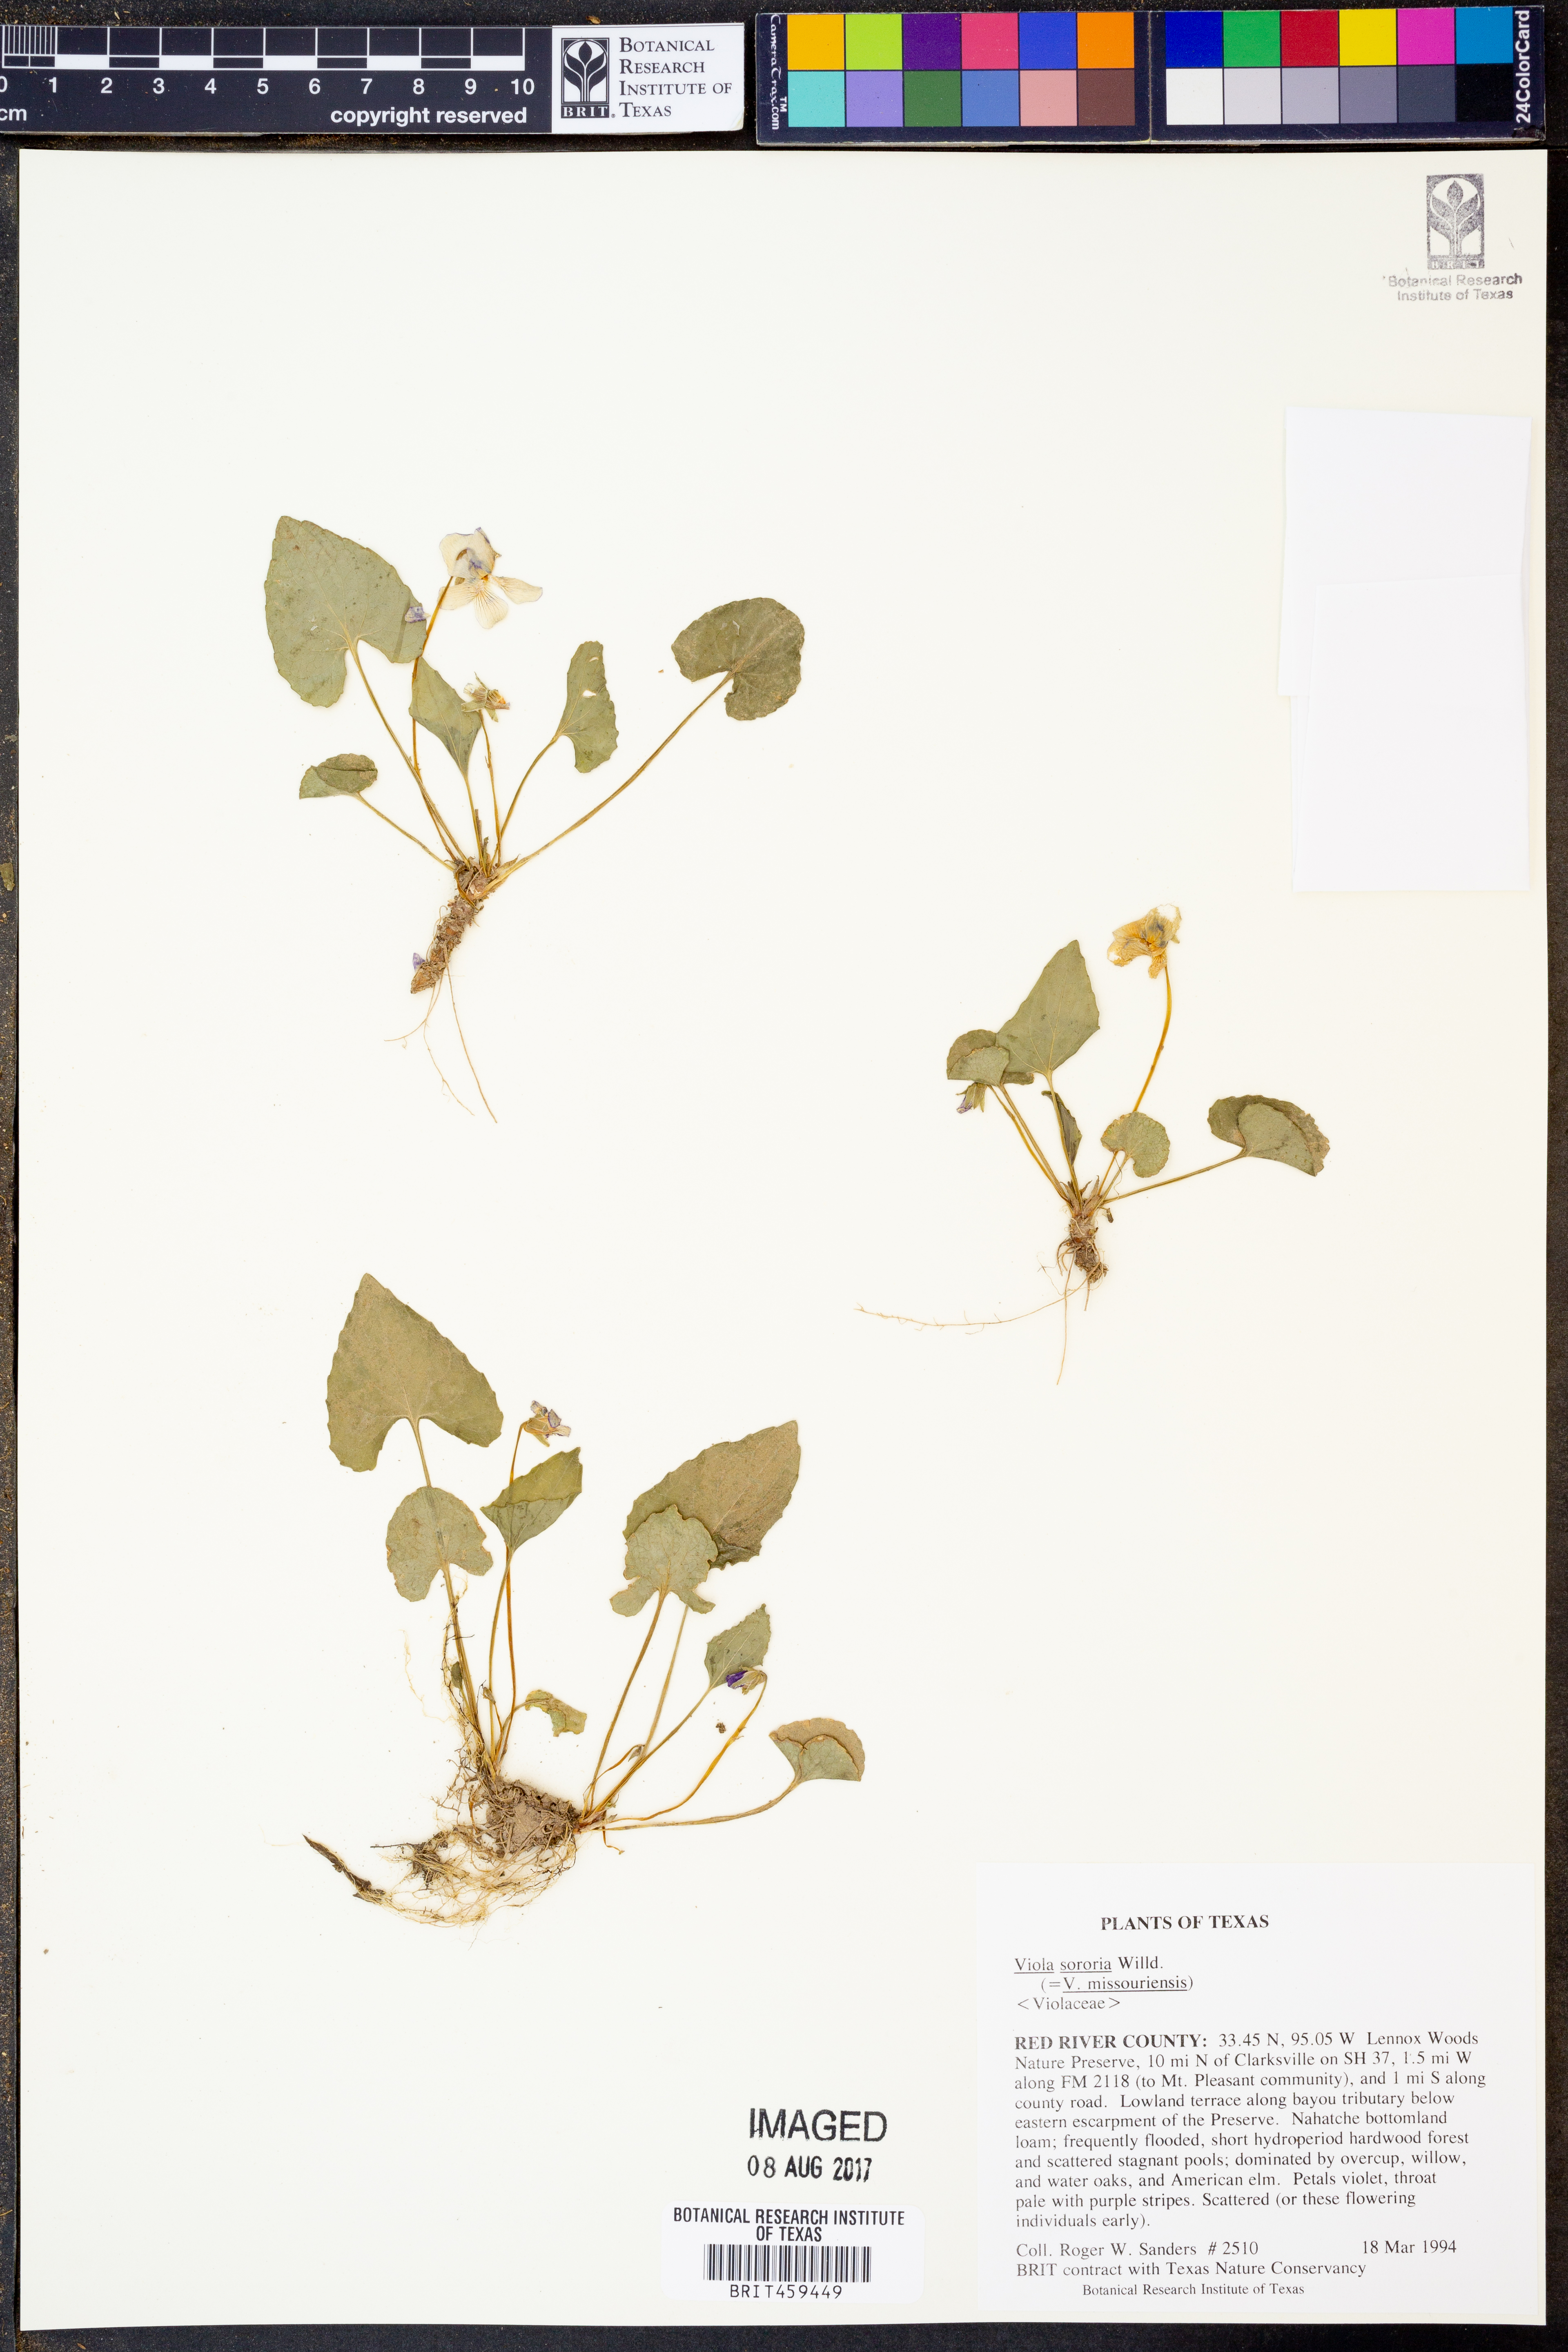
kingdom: Plantae
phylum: Tracheophyta
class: Magnoliopsida
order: Malpighiales
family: Violaceae
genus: Viola
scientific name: Viola sororia
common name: Dooryard violet
